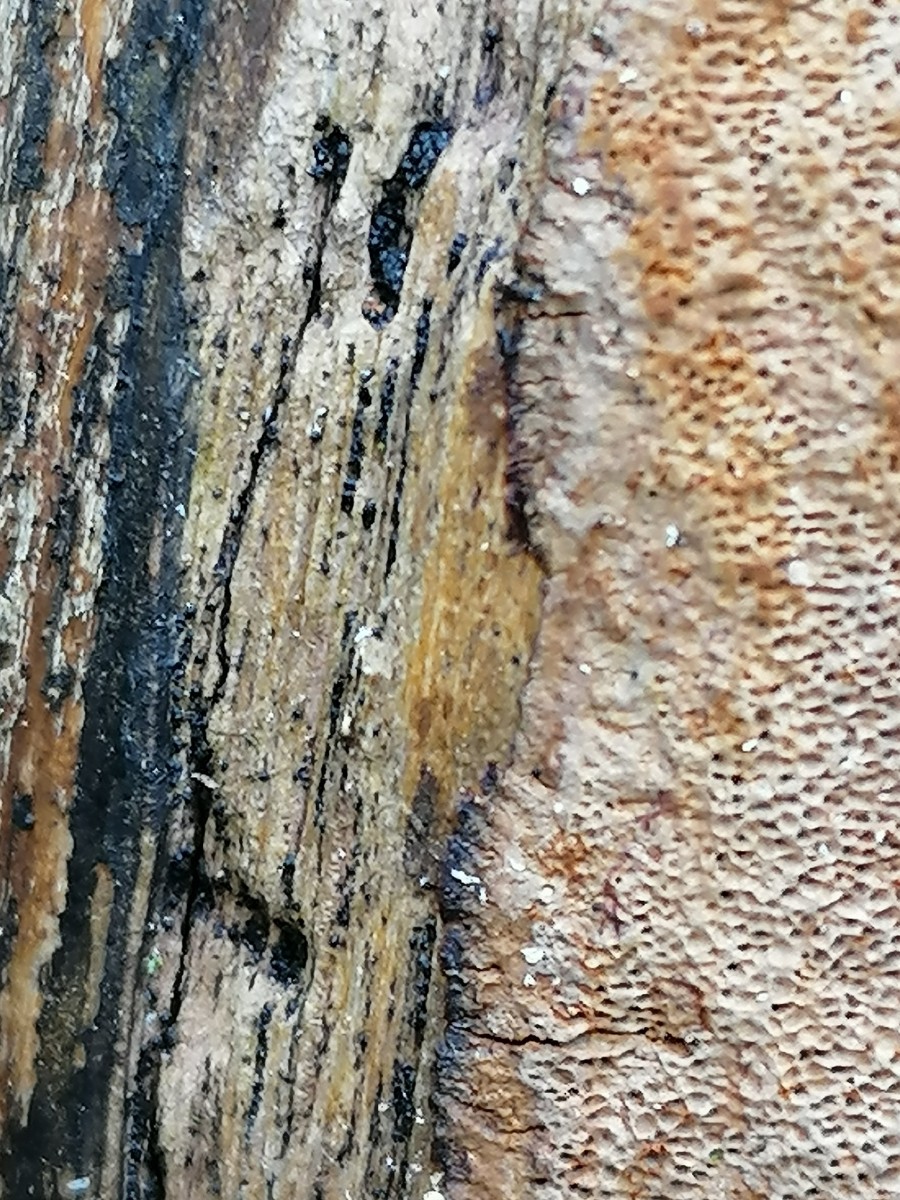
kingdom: Fungi
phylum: Basidiomycota
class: Agaricomycetes
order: Hymenochaetales
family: Hymenochaetaceae
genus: Fuscoporia
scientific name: Fuscoporia
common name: Ildporesvamp
